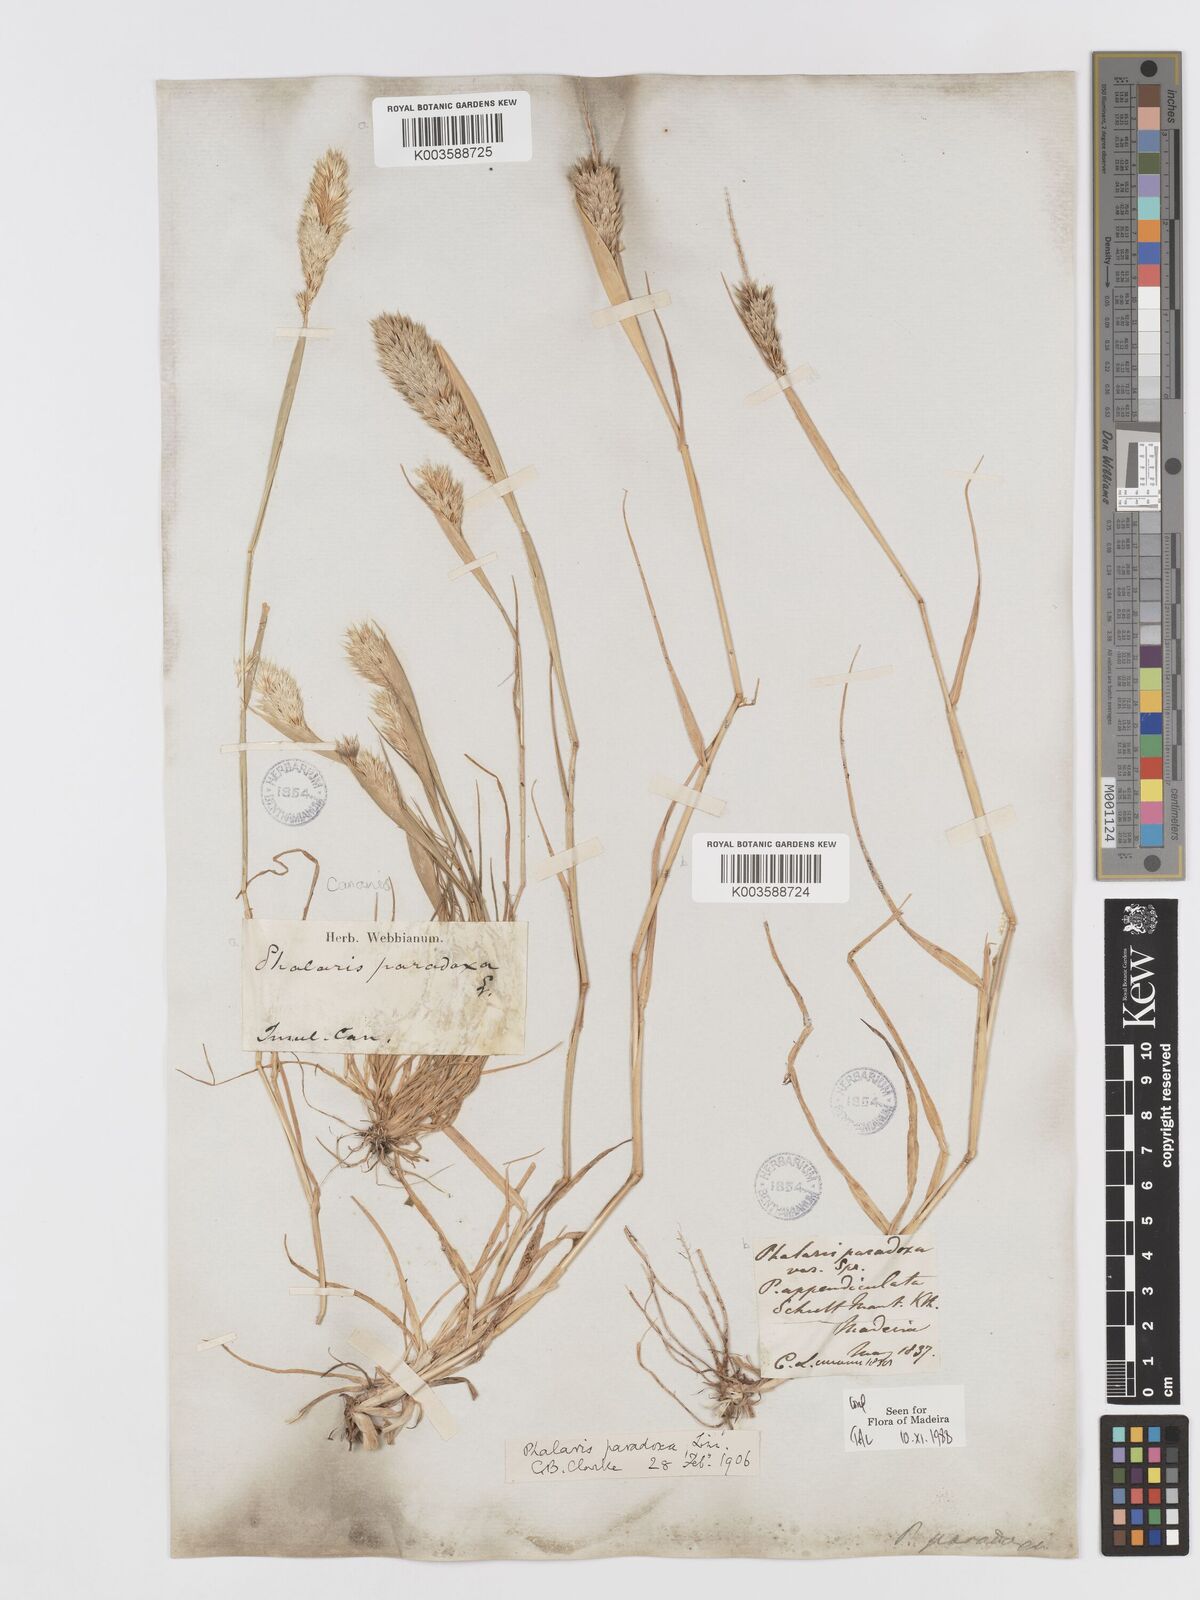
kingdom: Plantae
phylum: Tracheophyta
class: Liliopsida
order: Poales
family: Poaceae
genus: Phalaris
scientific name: Phalaris paradoxa
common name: Awned canary-grass
